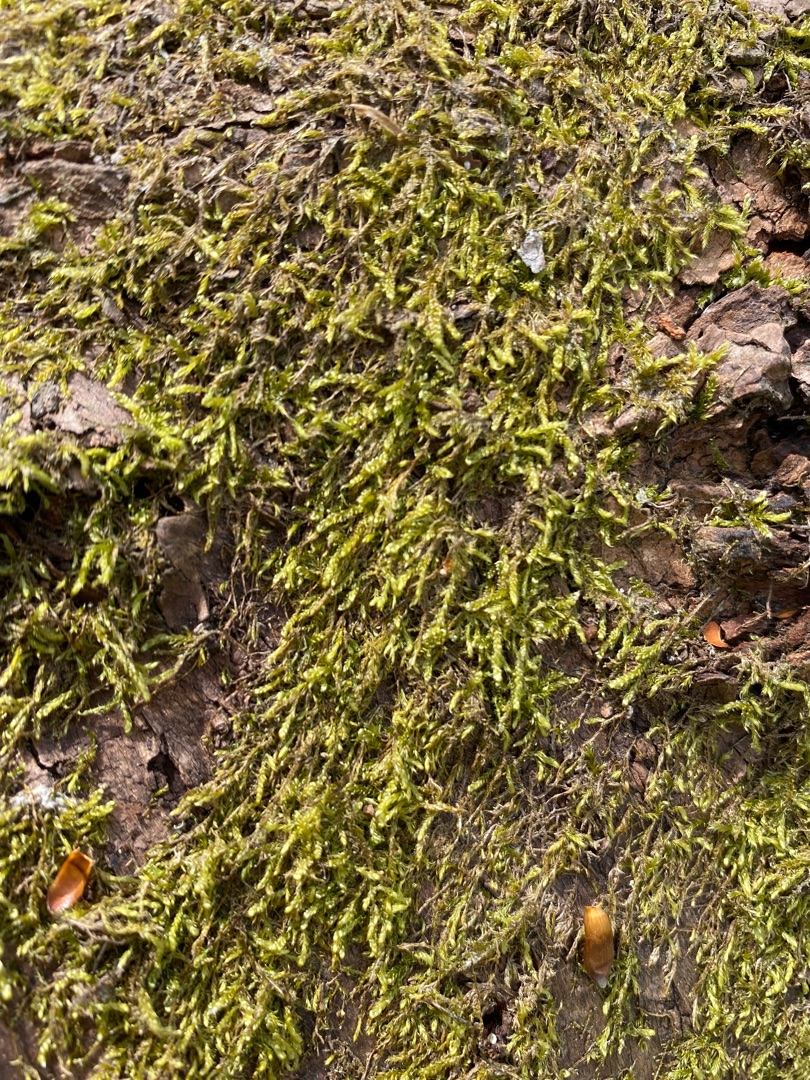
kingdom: Plantae
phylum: Bryophyta
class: Bryopsida
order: Hypnales
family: Hypnaceae
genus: Hypnum
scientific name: Hypnum
